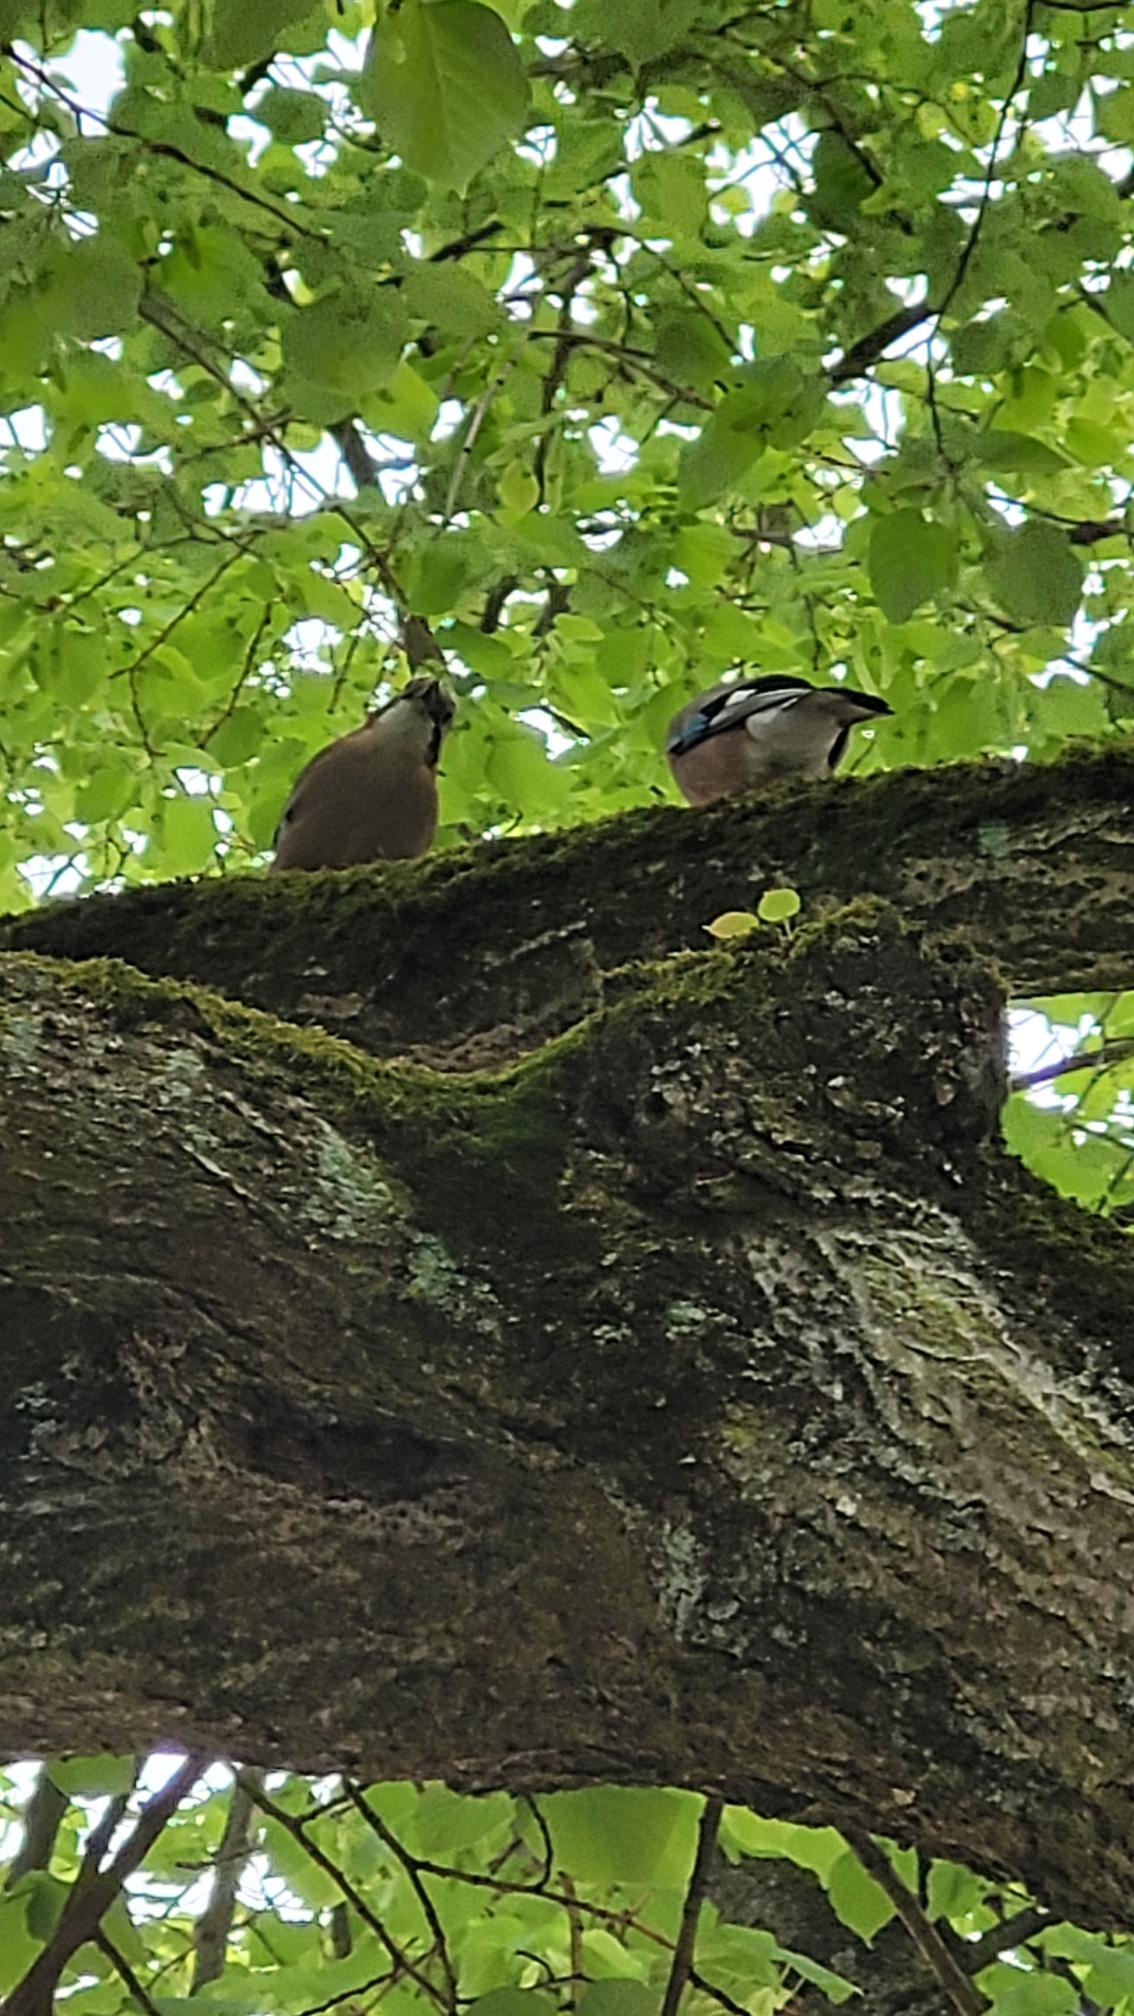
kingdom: Animalia
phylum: Chordata
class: Aves
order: Passeriformes
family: Corvidae
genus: Garrulus
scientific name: Garrulus glandarius
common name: Skovskade
